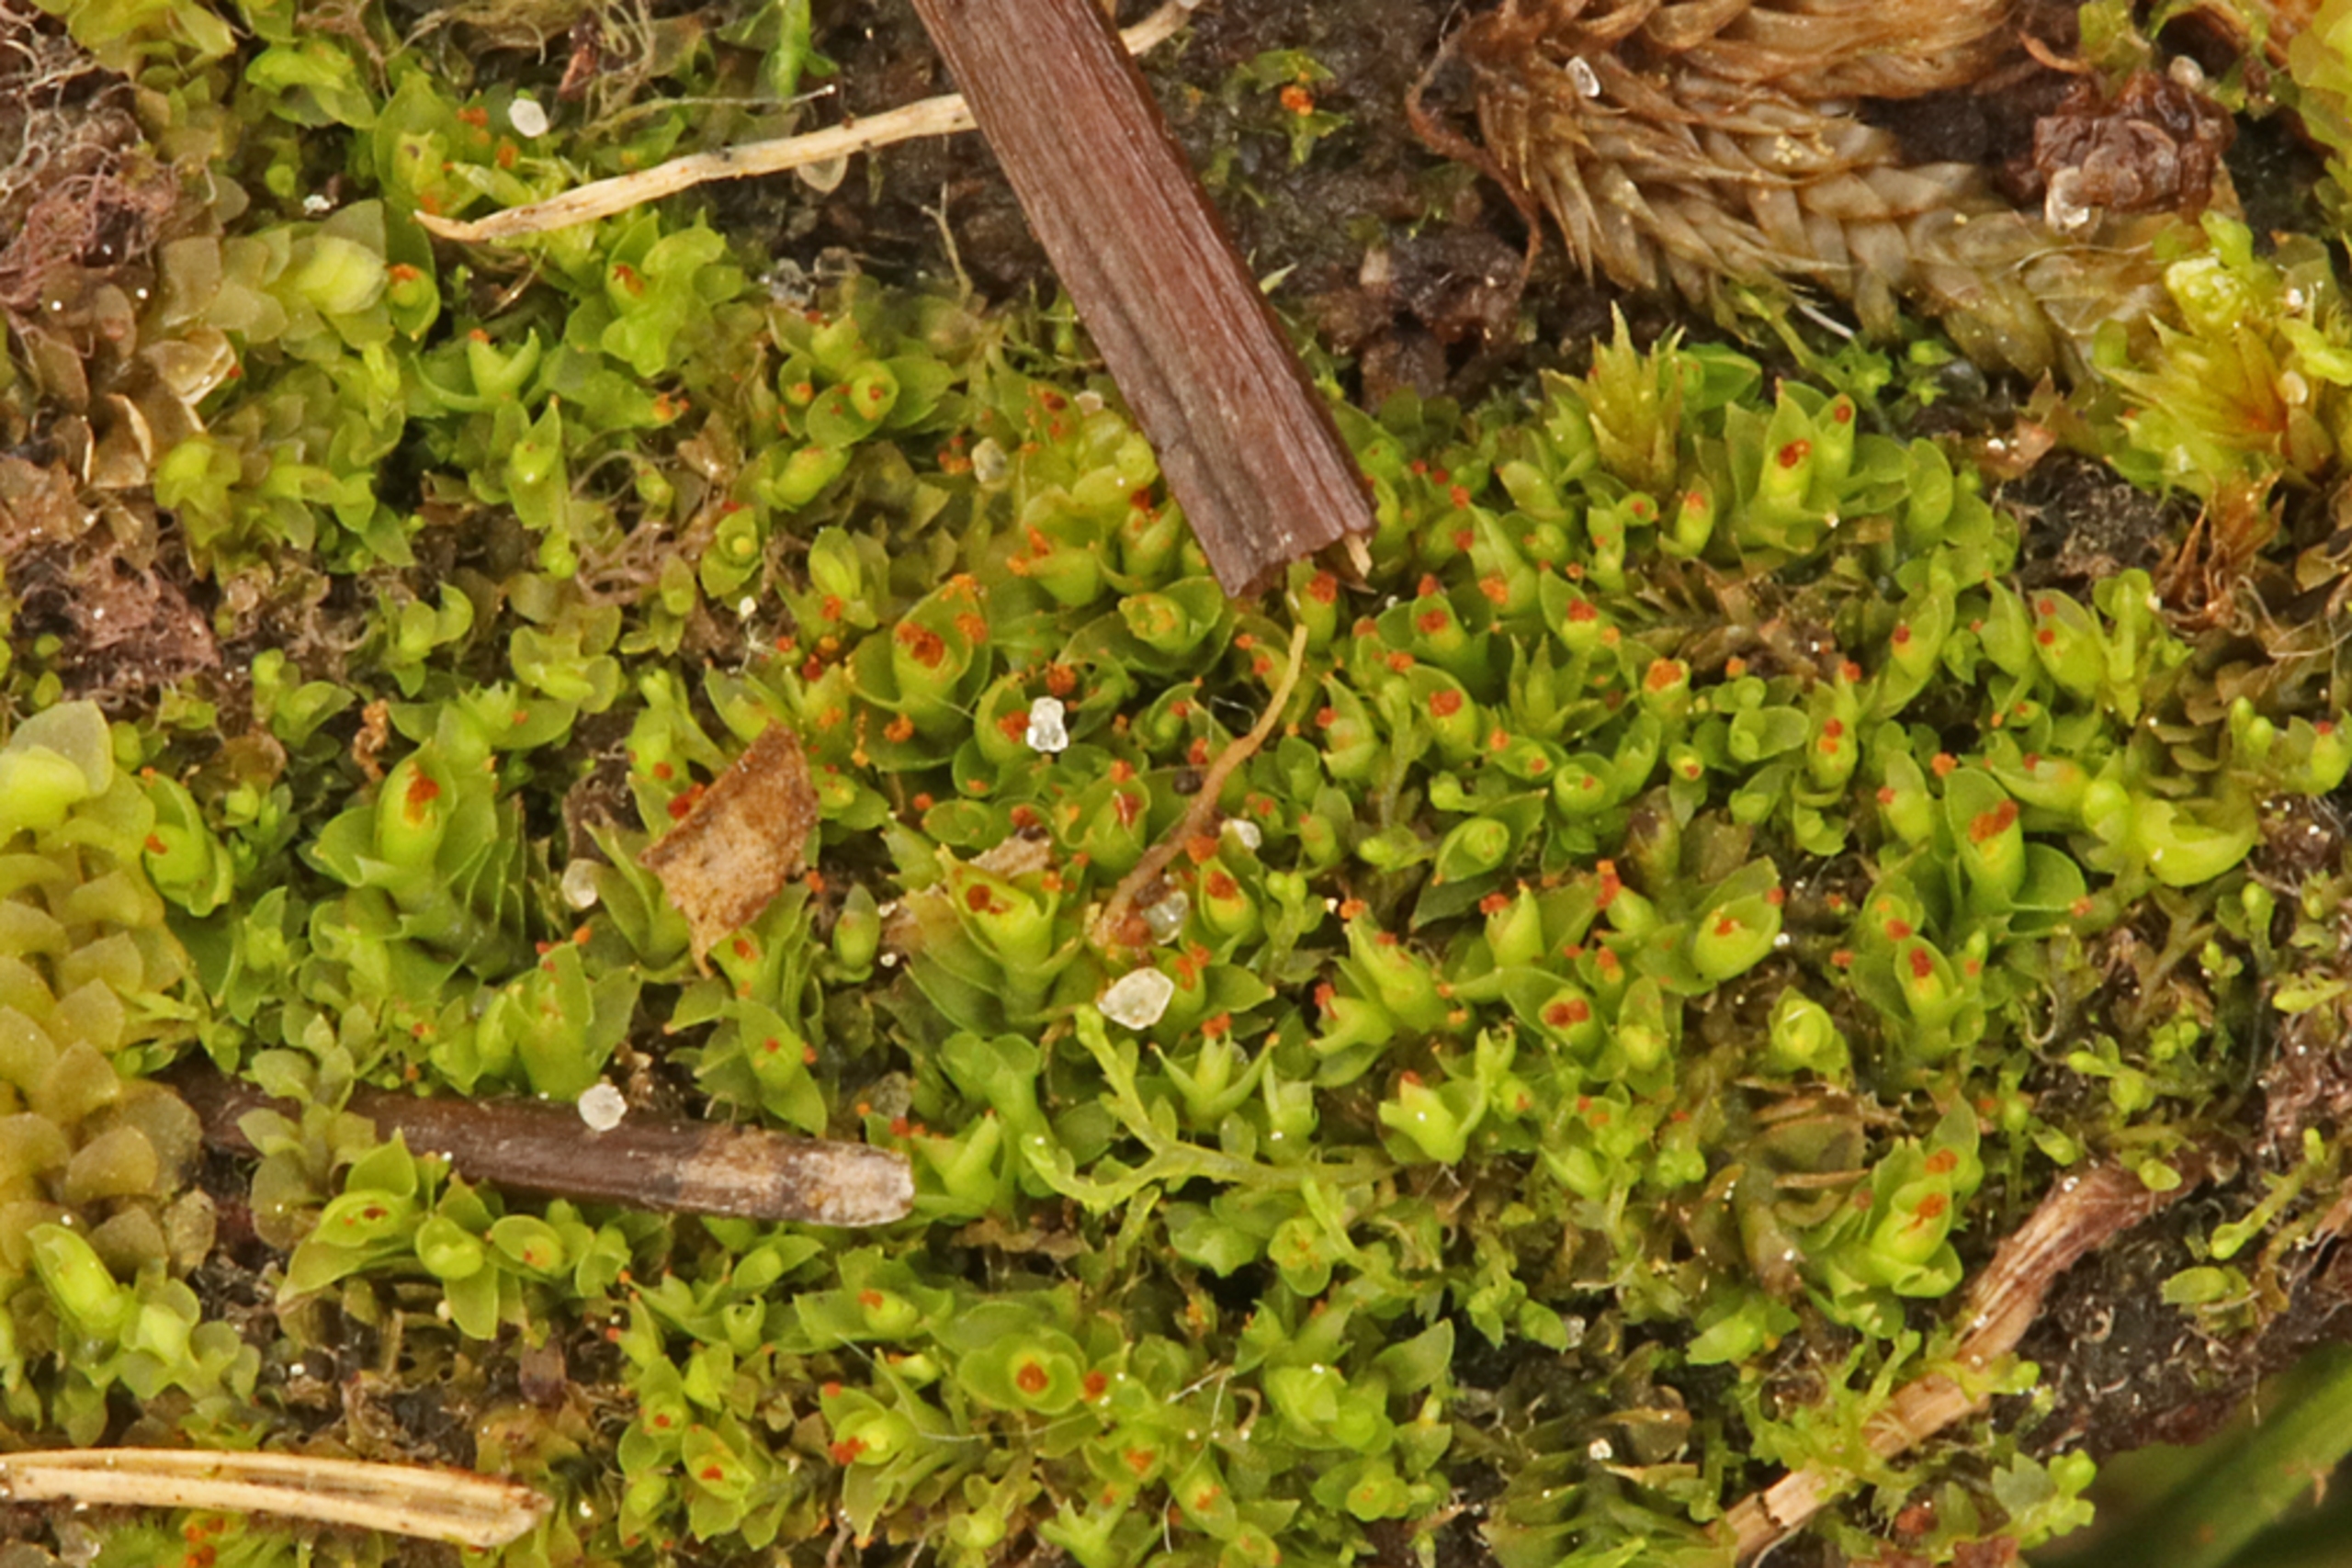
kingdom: Plantae
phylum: Marchantiophyta
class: Jungermanniopsida
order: Jungermanniales
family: Lophoziaceae
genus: Tritomaria
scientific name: Tritomaria exsectiformis
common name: Skævbladet tretand
